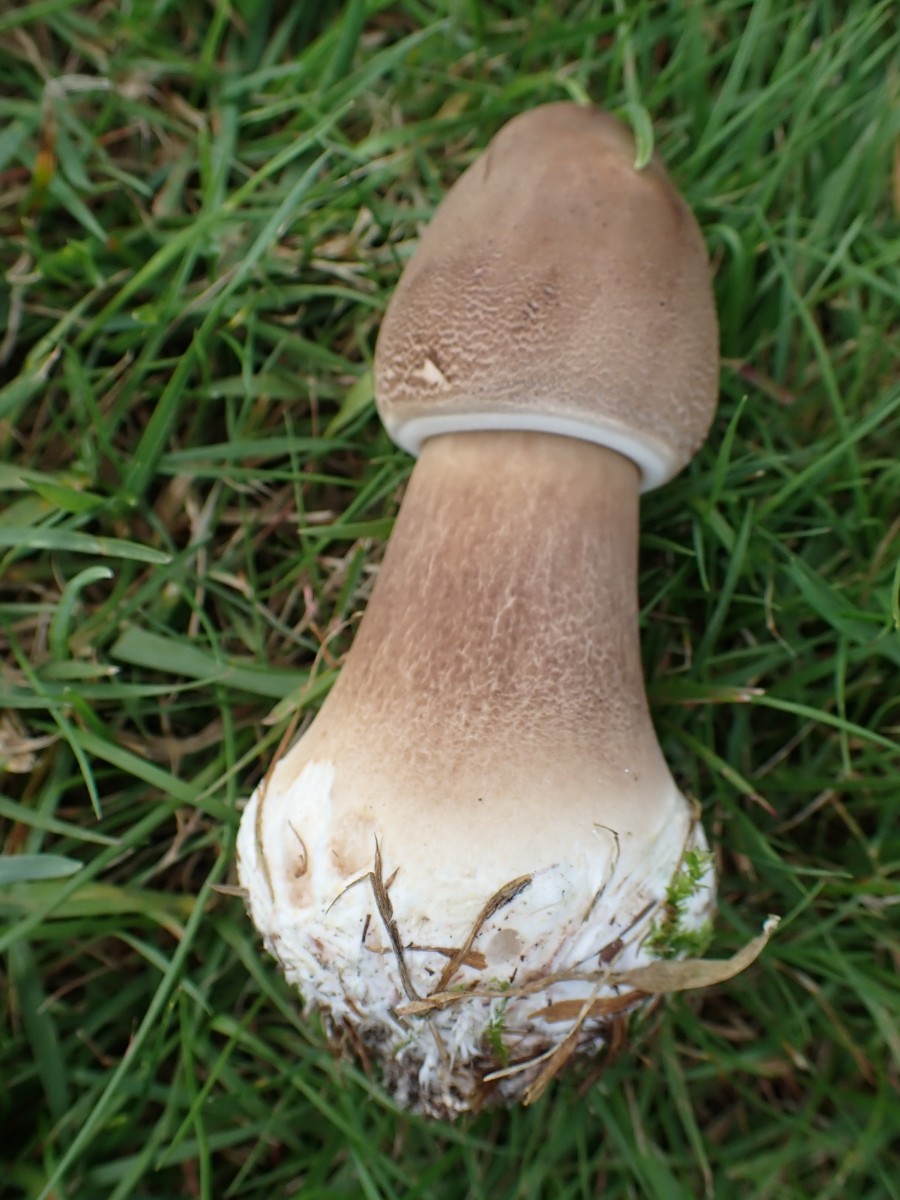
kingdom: Fungi
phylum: Basidiomycota
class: Agaricomycetes
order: Agaricales
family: Agaricaceae
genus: Macrolepiota
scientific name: Macrolepiota
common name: kæmpeparasolhat
